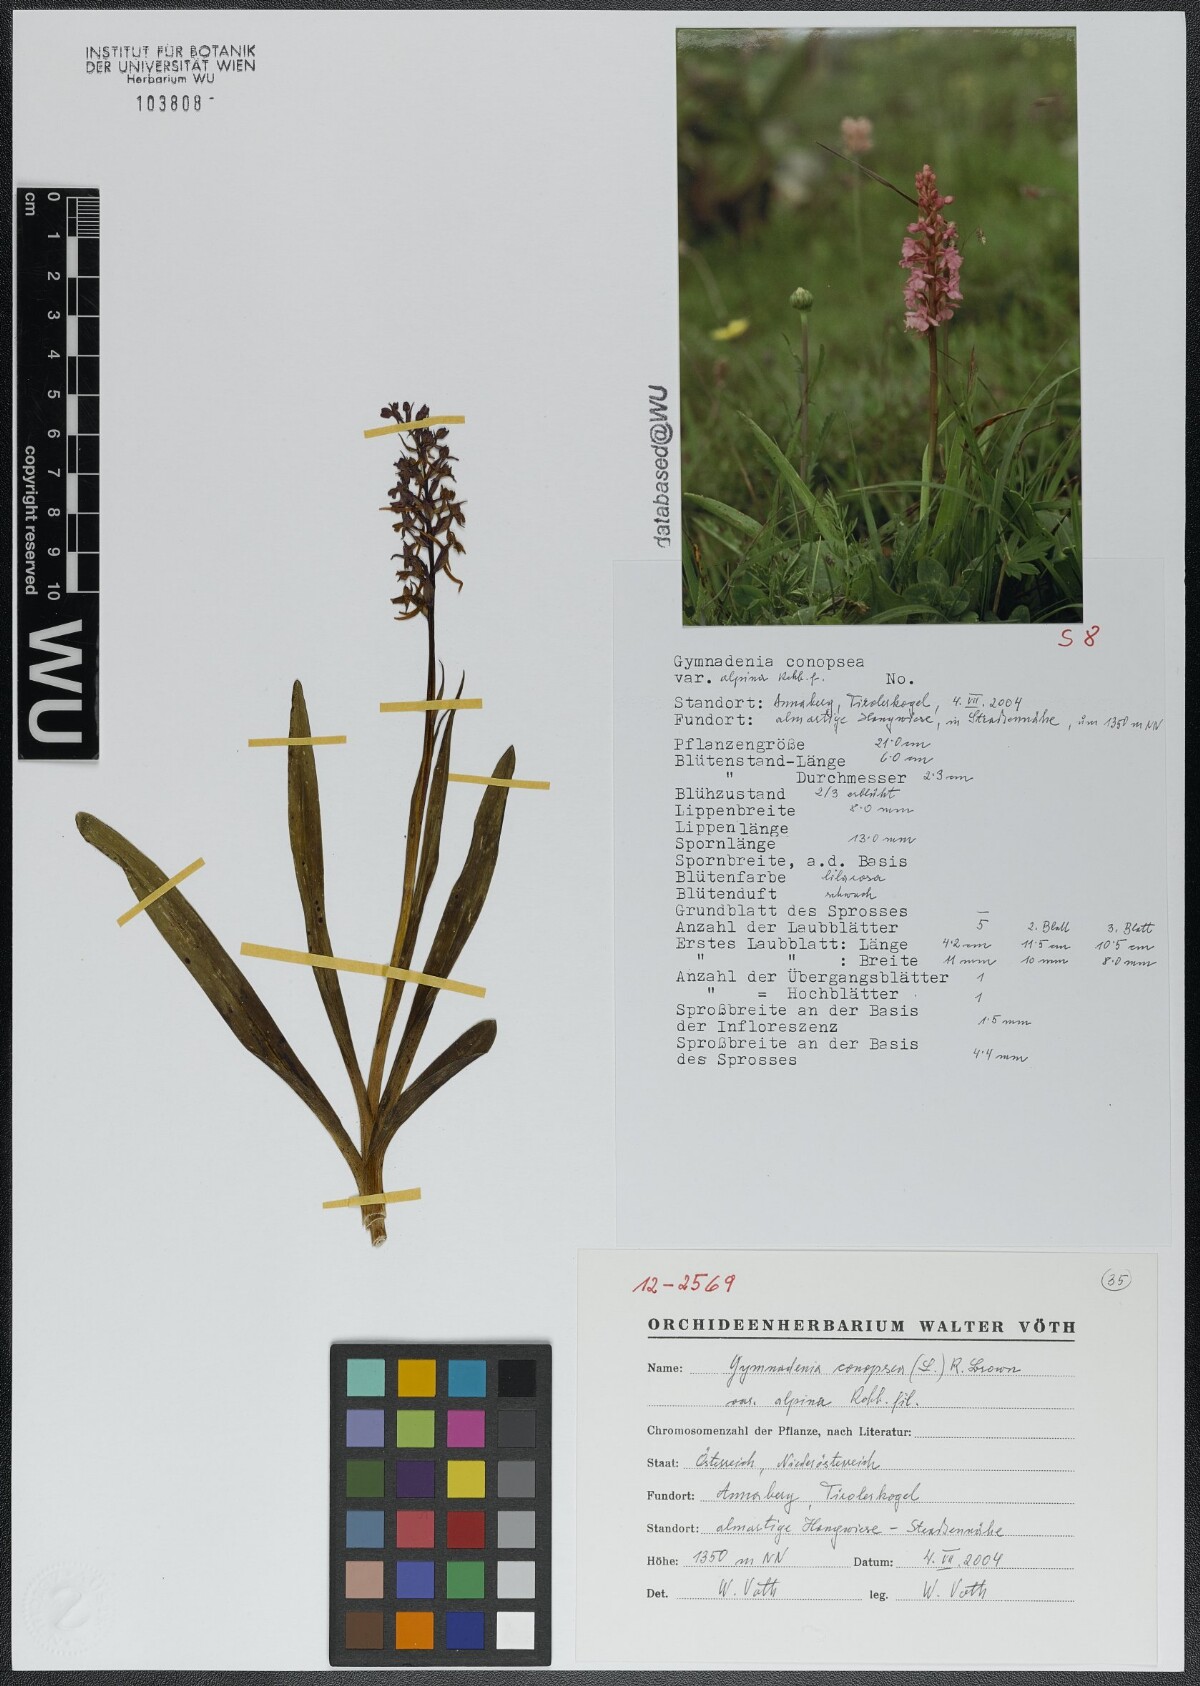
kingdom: Plantae
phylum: Tracheophyta
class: Liliopsida
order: Asparagales
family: Orchidaceae
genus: Gymnadenia
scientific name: Gymnadenia conopsea
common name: Fragrant orchid
